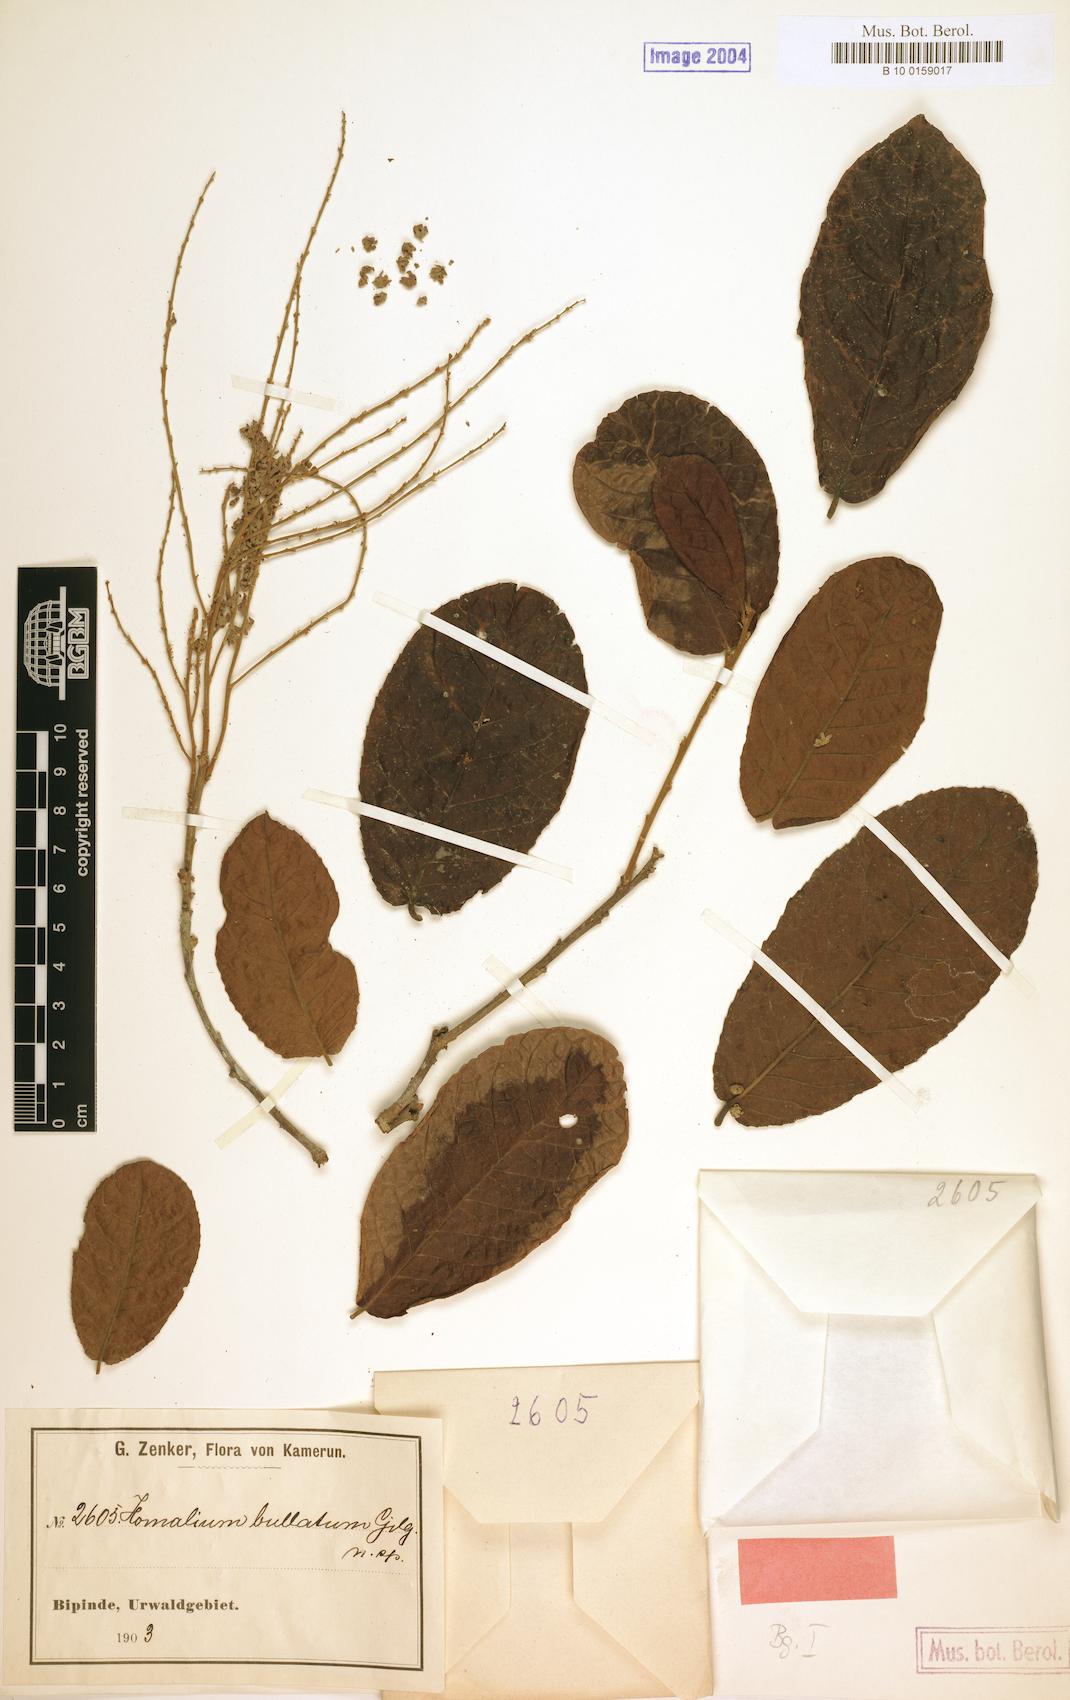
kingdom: Plantae
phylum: Tracheophyta
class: Magnoliopsida
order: Malpighiales
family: Salicaceae
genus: Homalium
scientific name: Homalium stipulaceum
